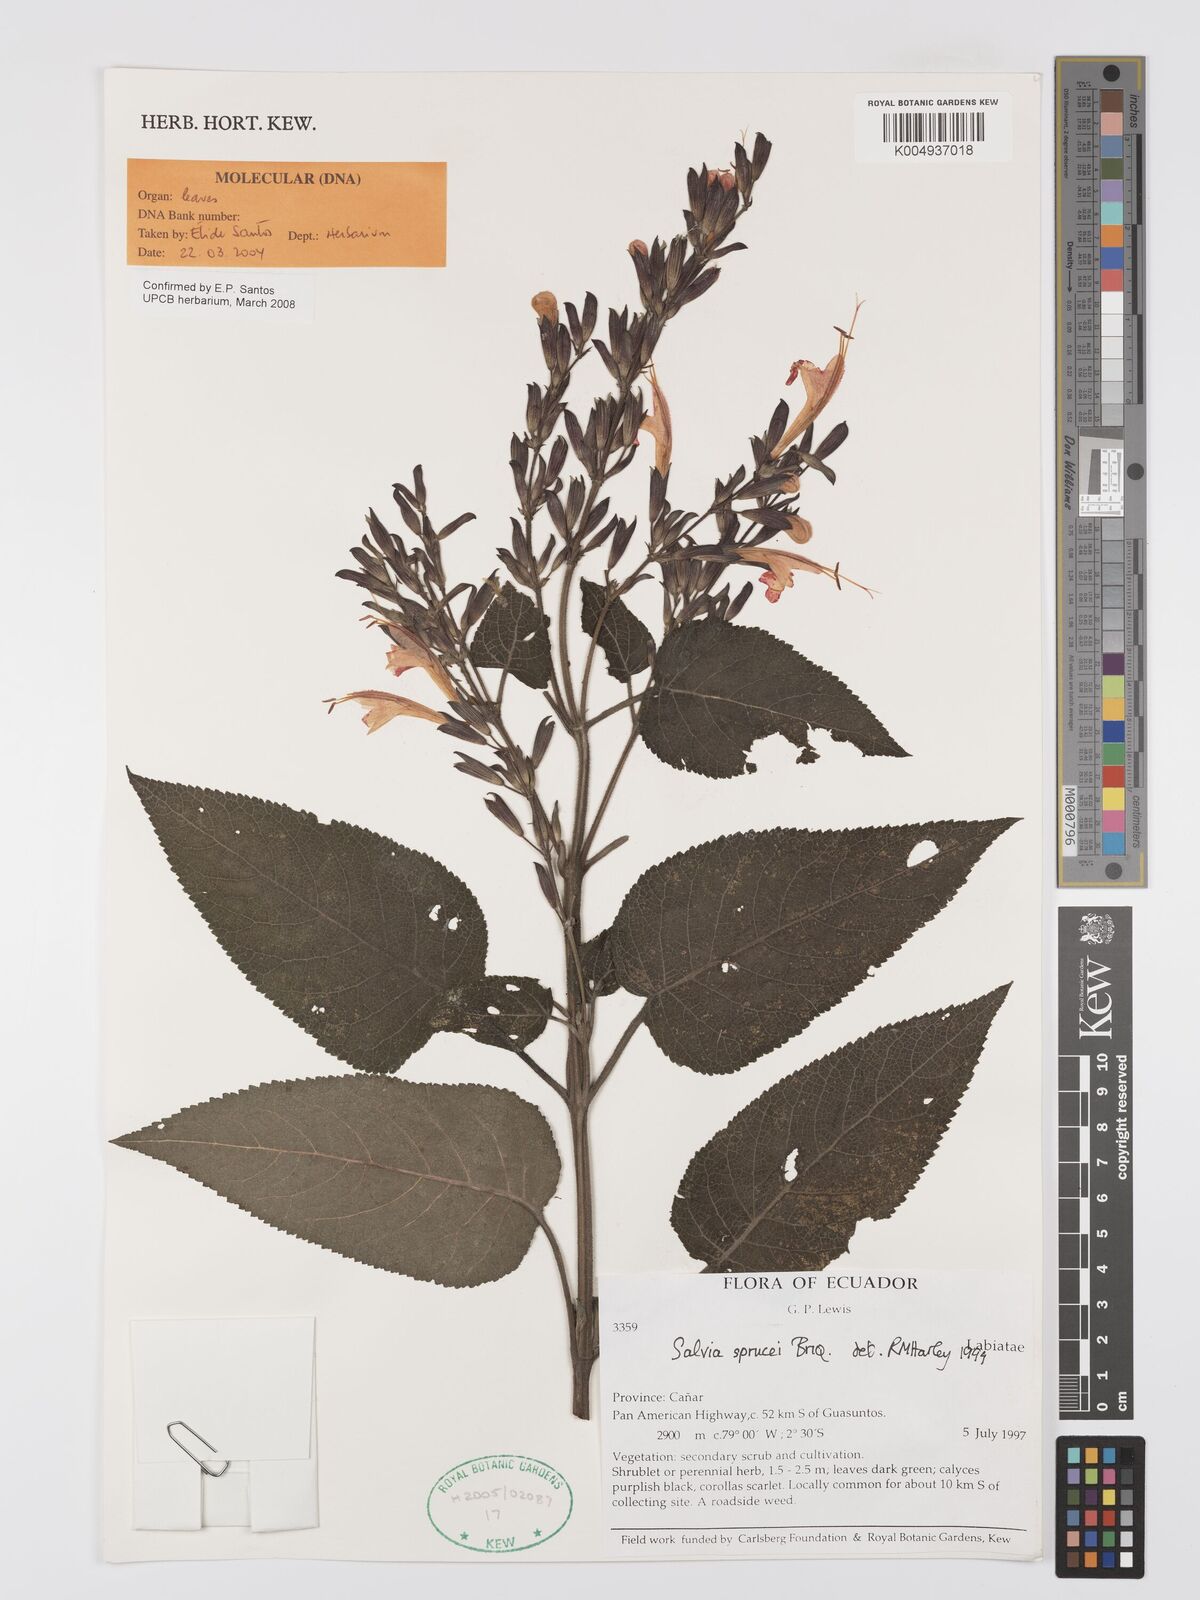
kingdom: Plantae
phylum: Tracheophyta
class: Magnoliopsida
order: Lamiales
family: Lamiaceae
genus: Salvia
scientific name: Salvia sprucei
